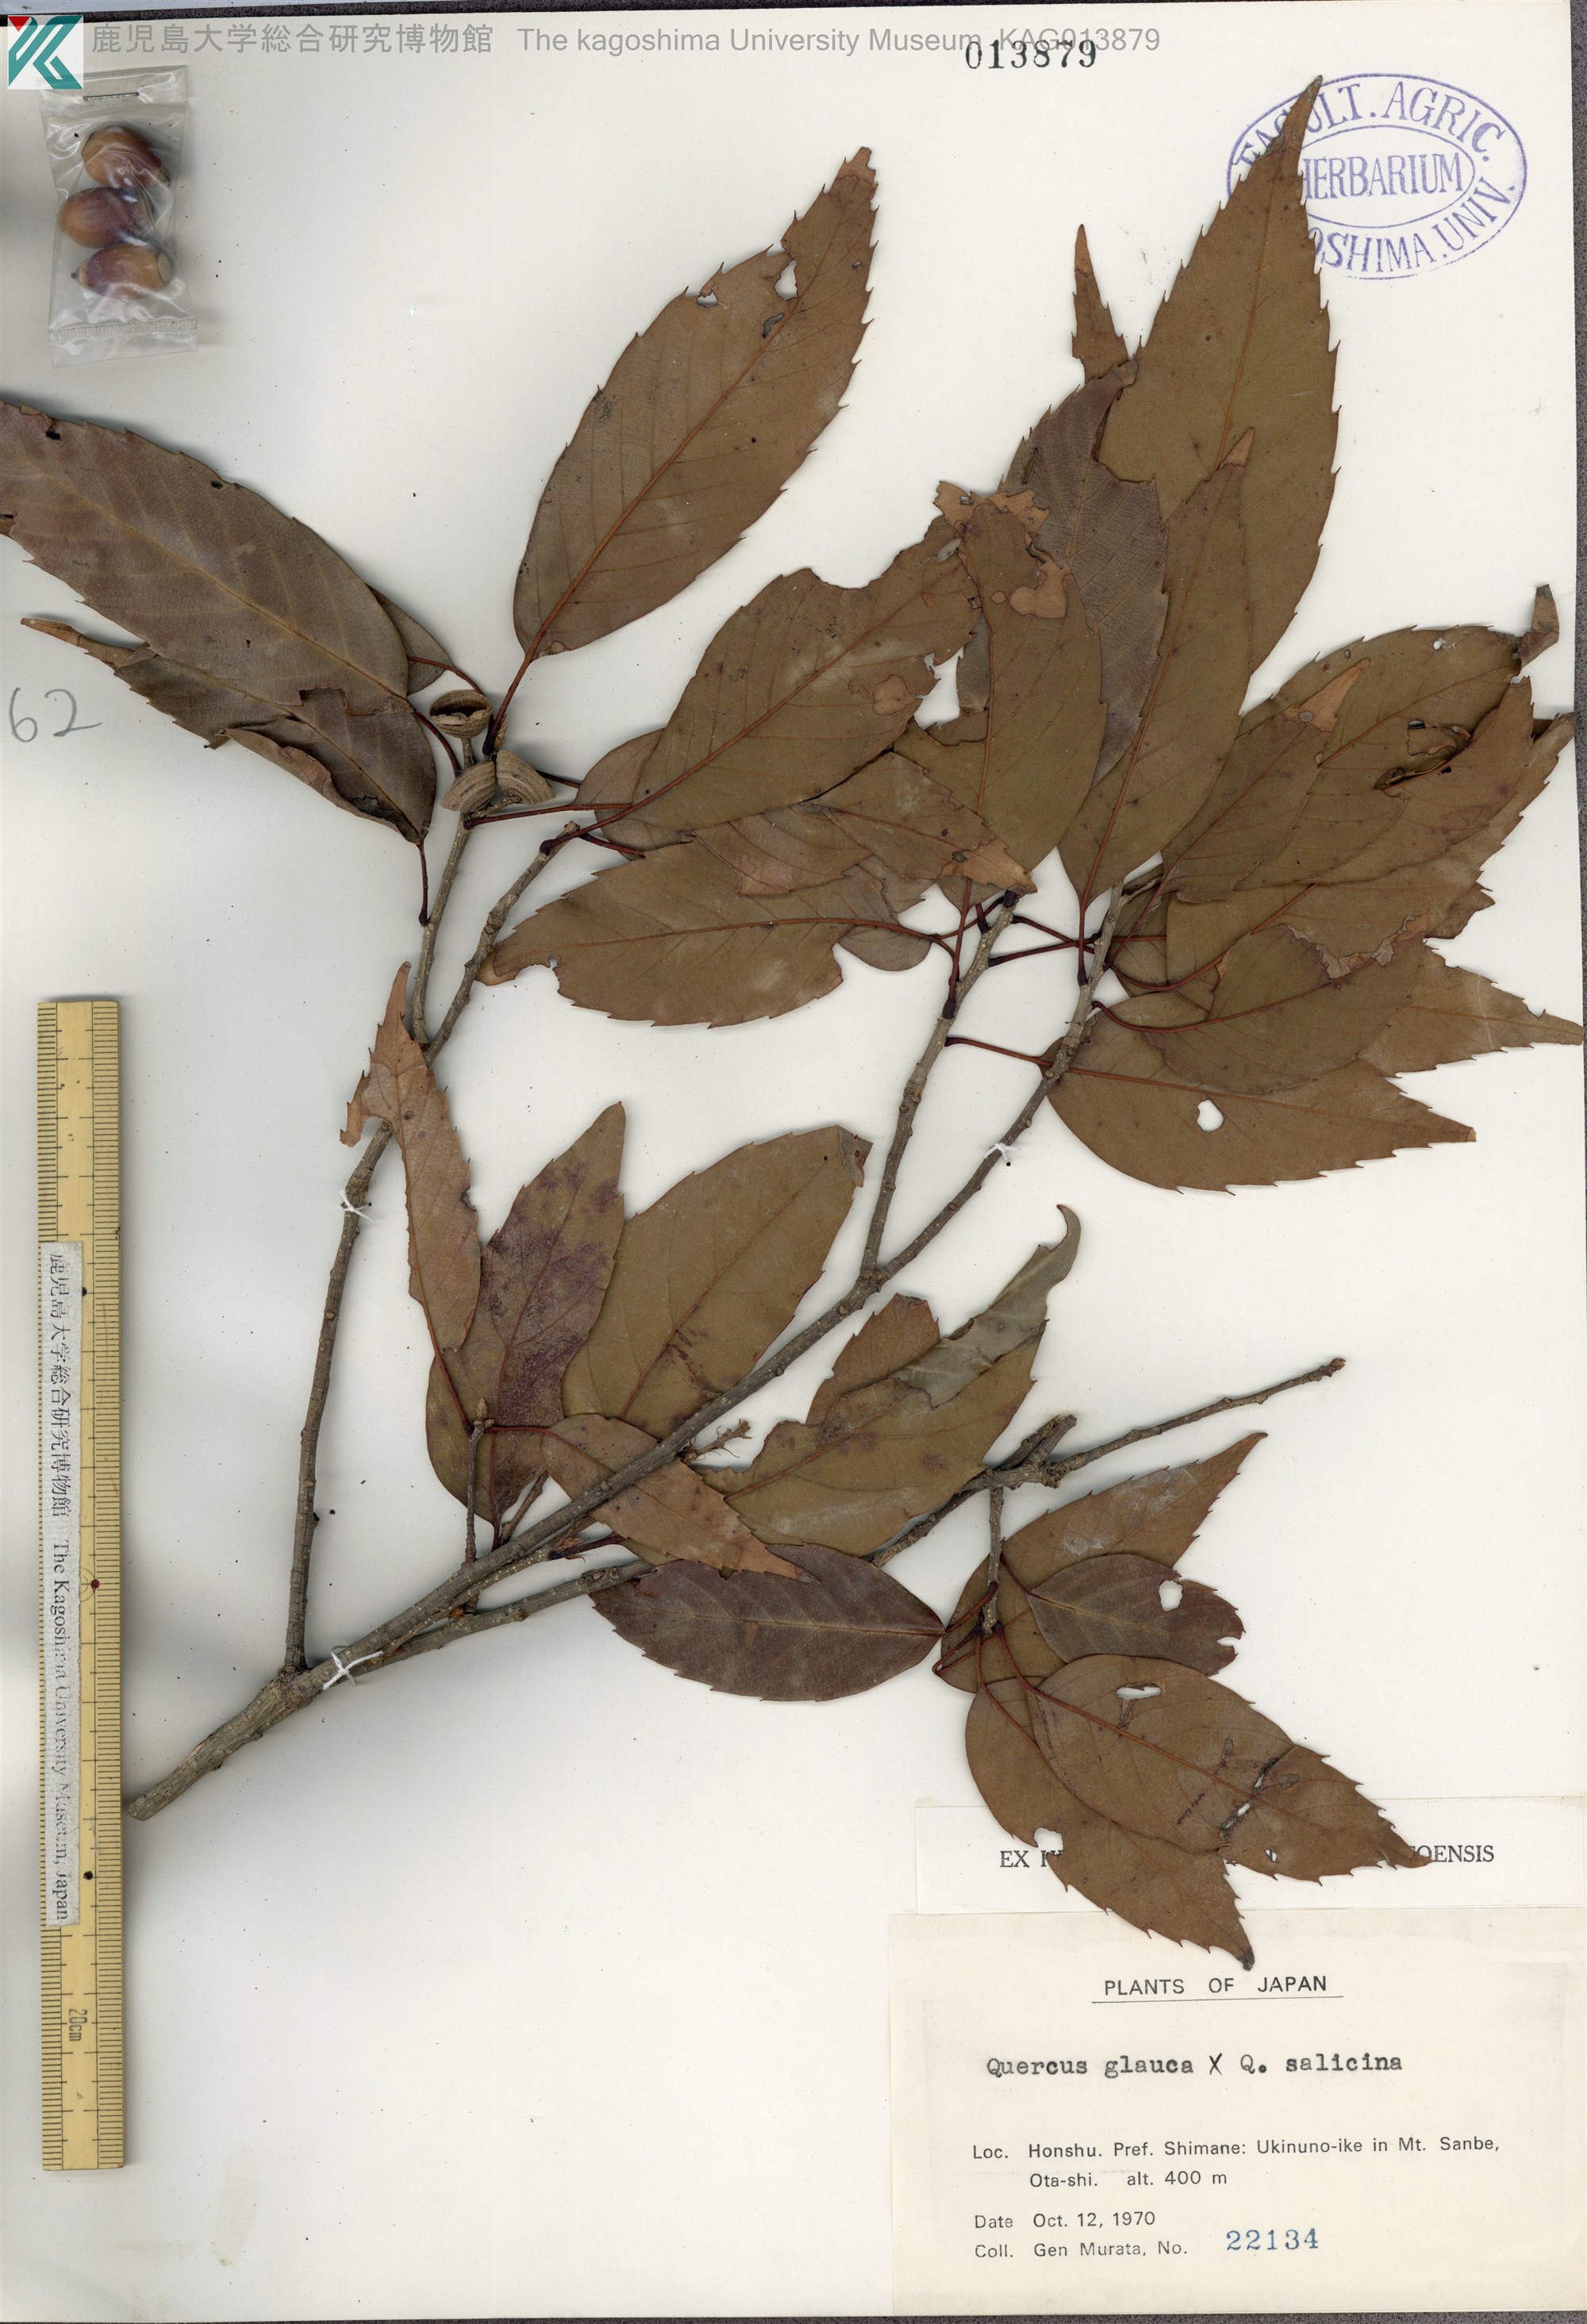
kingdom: Plantae
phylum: Tracheophyta
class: Magnoliopsida
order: Fagales
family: Fagaceae
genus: Quercus
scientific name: Quercus glauca
